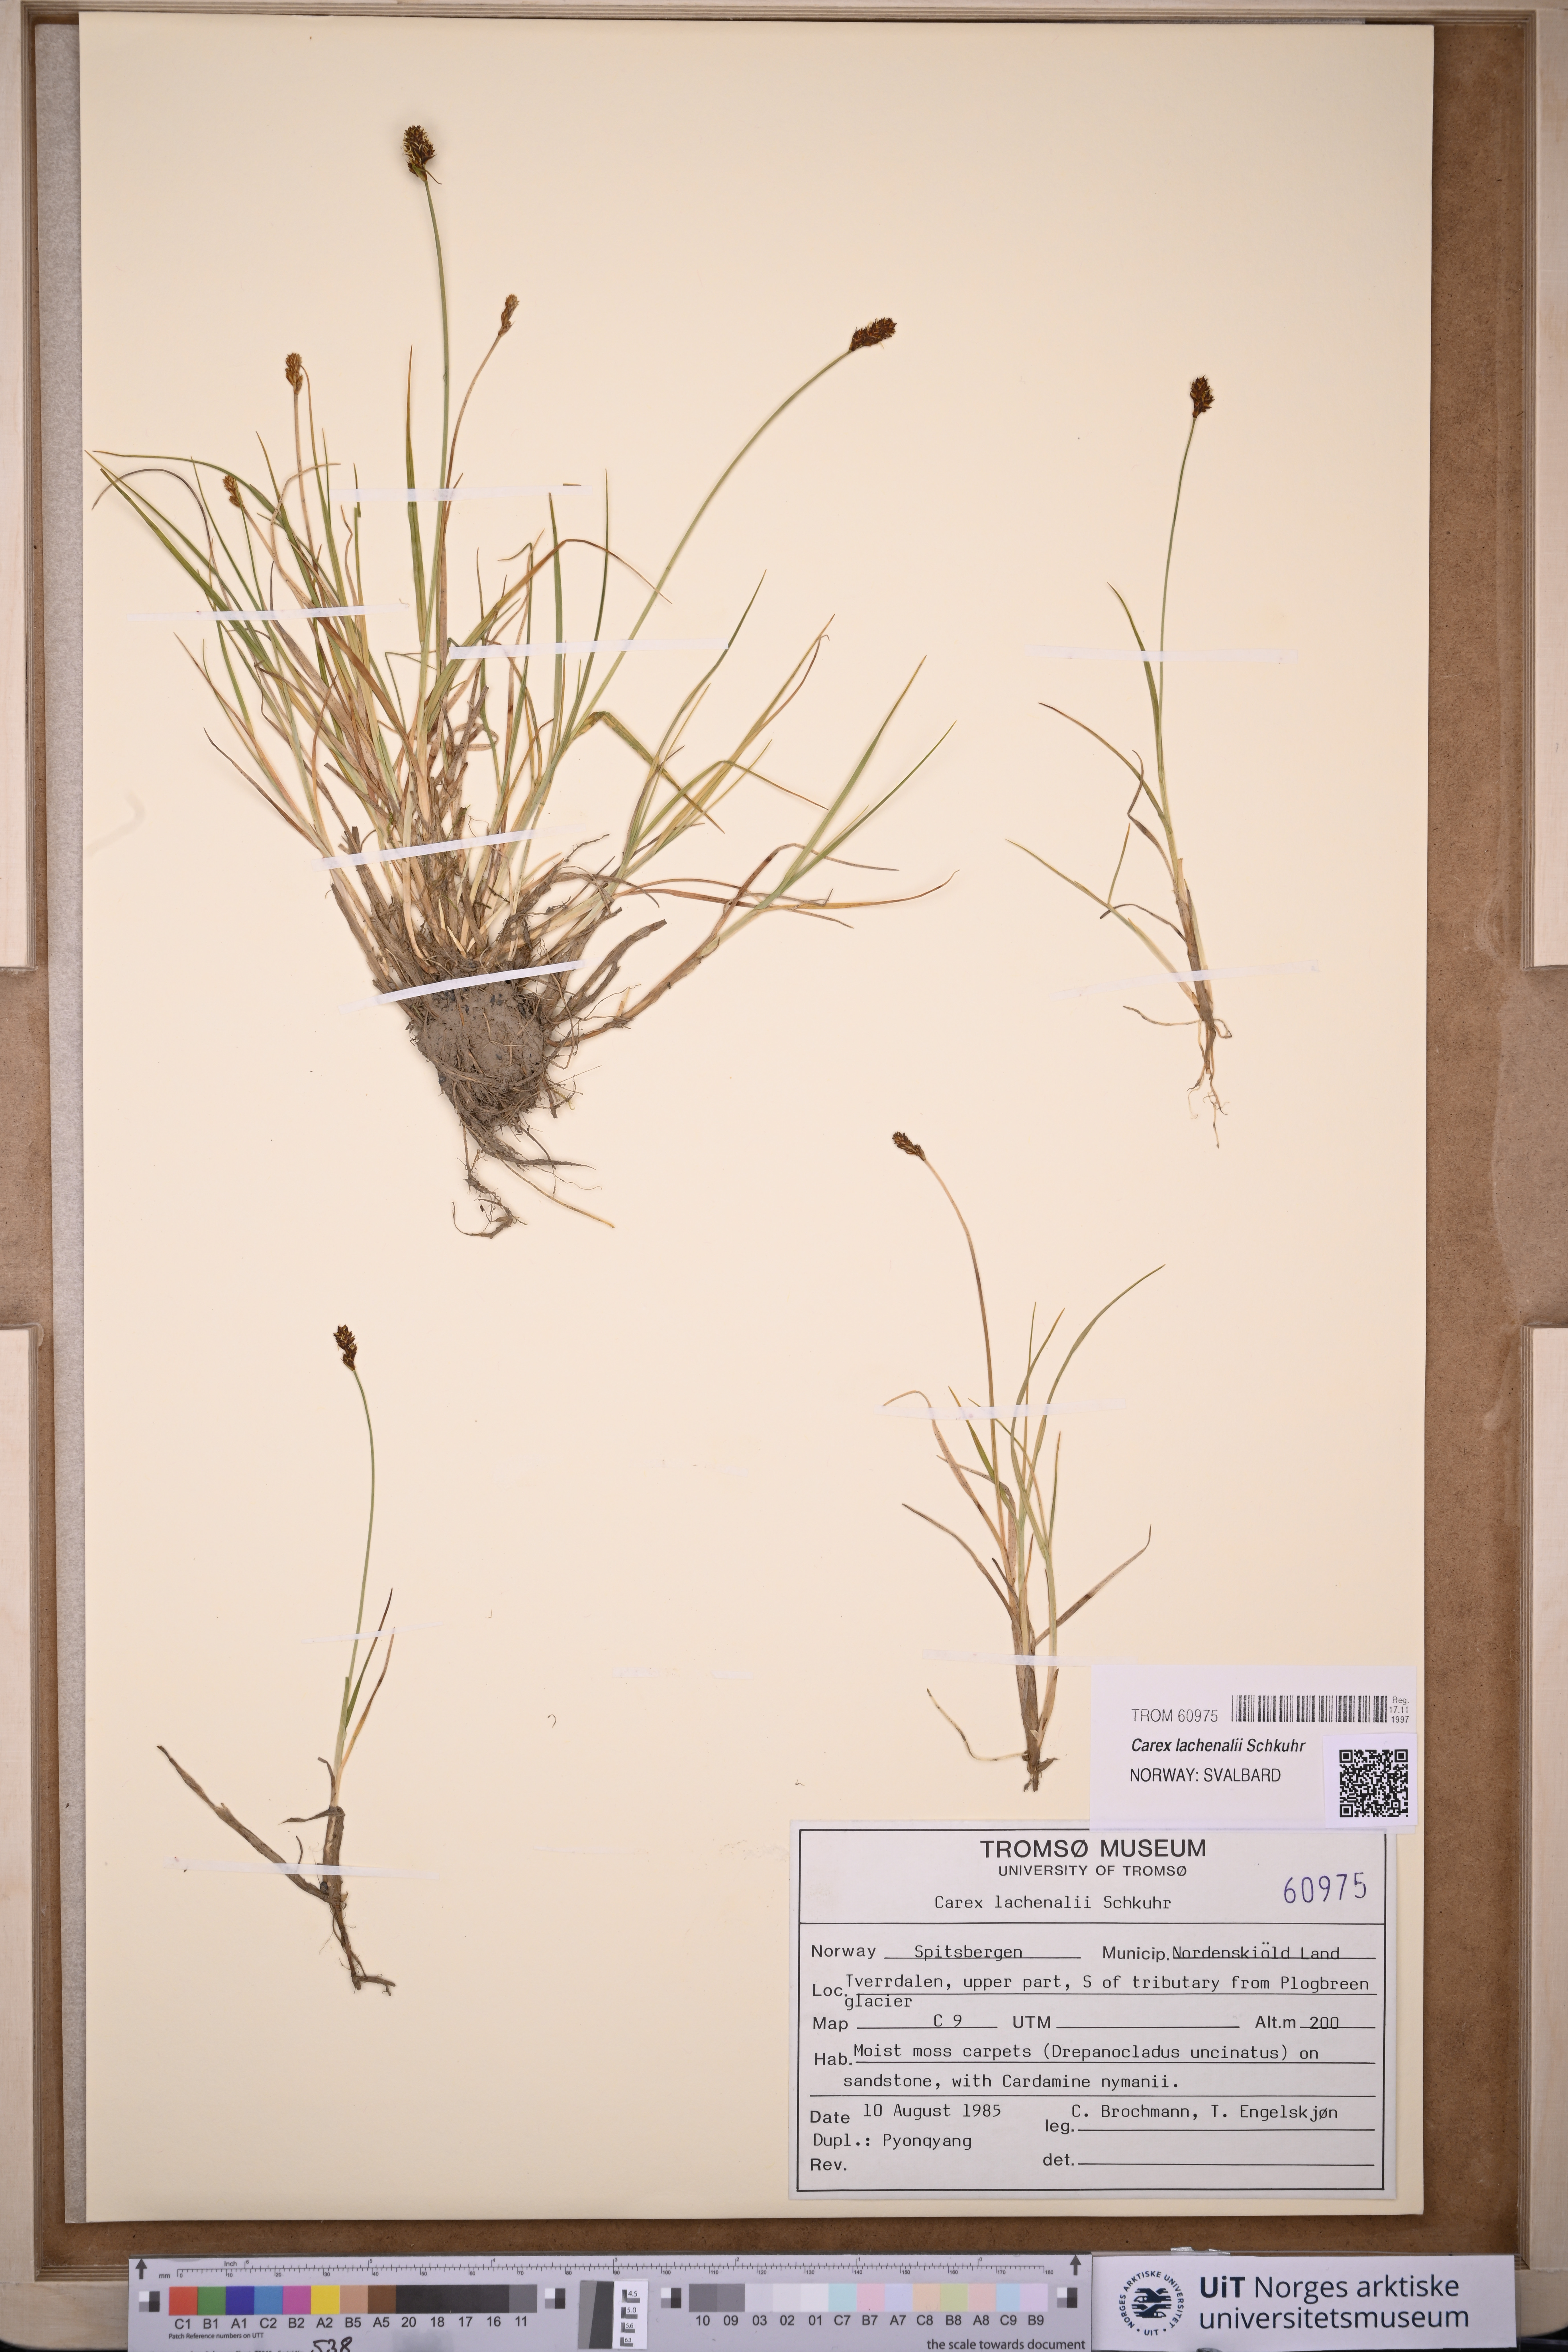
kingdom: Plantae
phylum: Tracheophyta
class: Liliopsida
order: Poales
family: Cyperaceae
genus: Carex
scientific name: Carex lachenalii
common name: Hare's-foot sedge
